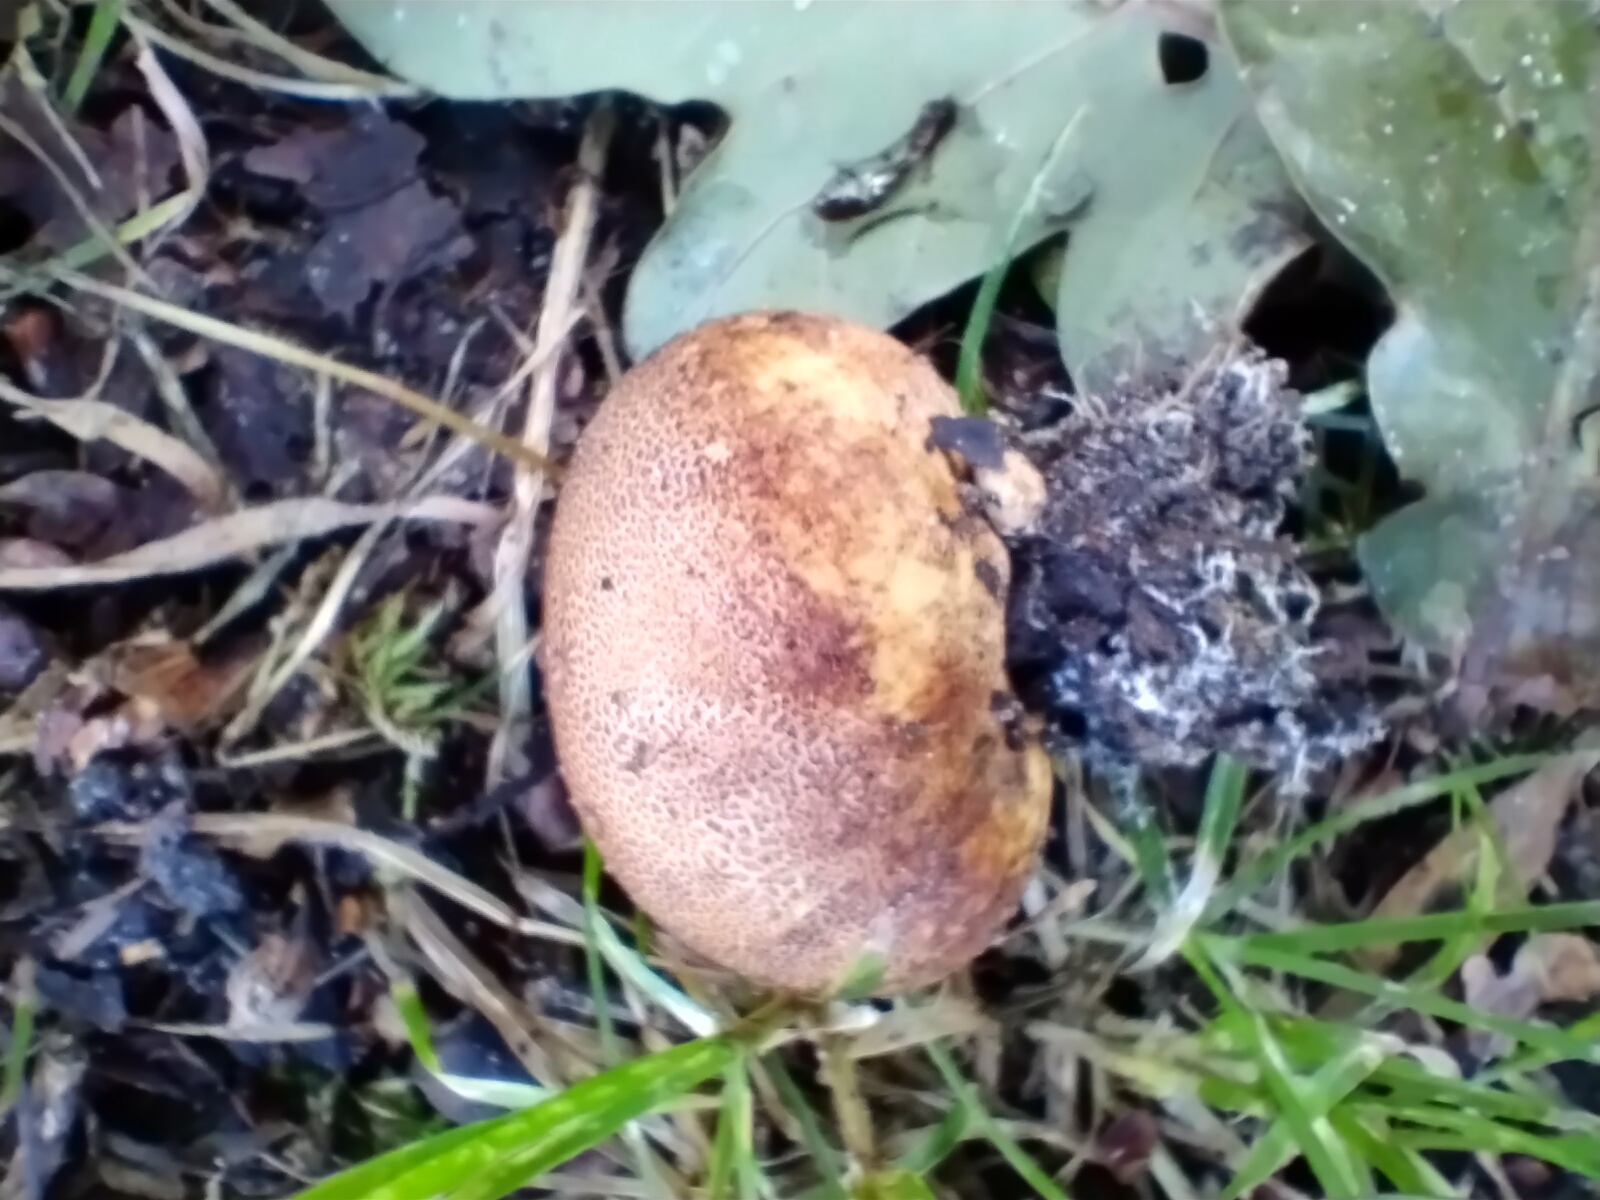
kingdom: Fungi
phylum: Basidiomycota
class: Agaricomycetes
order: Boletales
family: Sclerodermataceae
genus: Scleroderma
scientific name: Scleroderma areolatum
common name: plettet bruskbold
